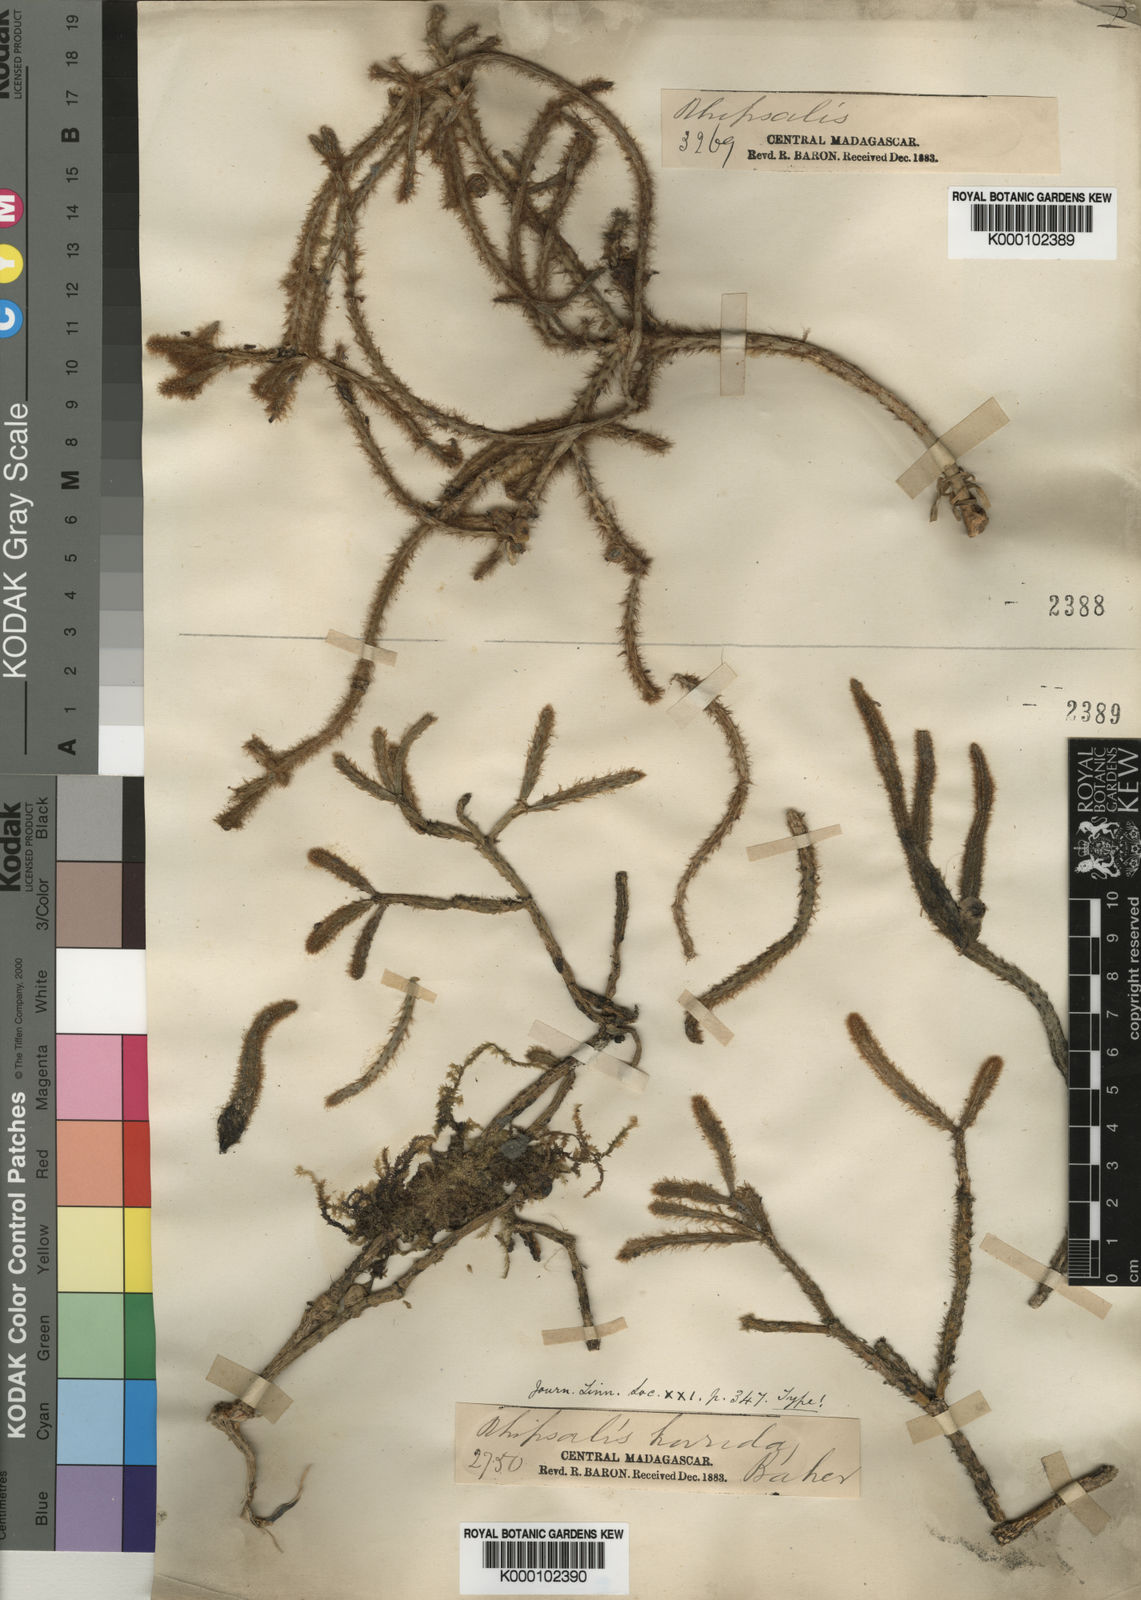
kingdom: Plantae
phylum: Tracheophyta
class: Magnoliopsida
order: Caryophyllales
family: Cactaceae
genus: Rhipsalis
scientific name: Rhipsalis baccifera
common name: Mistletoe cactus
